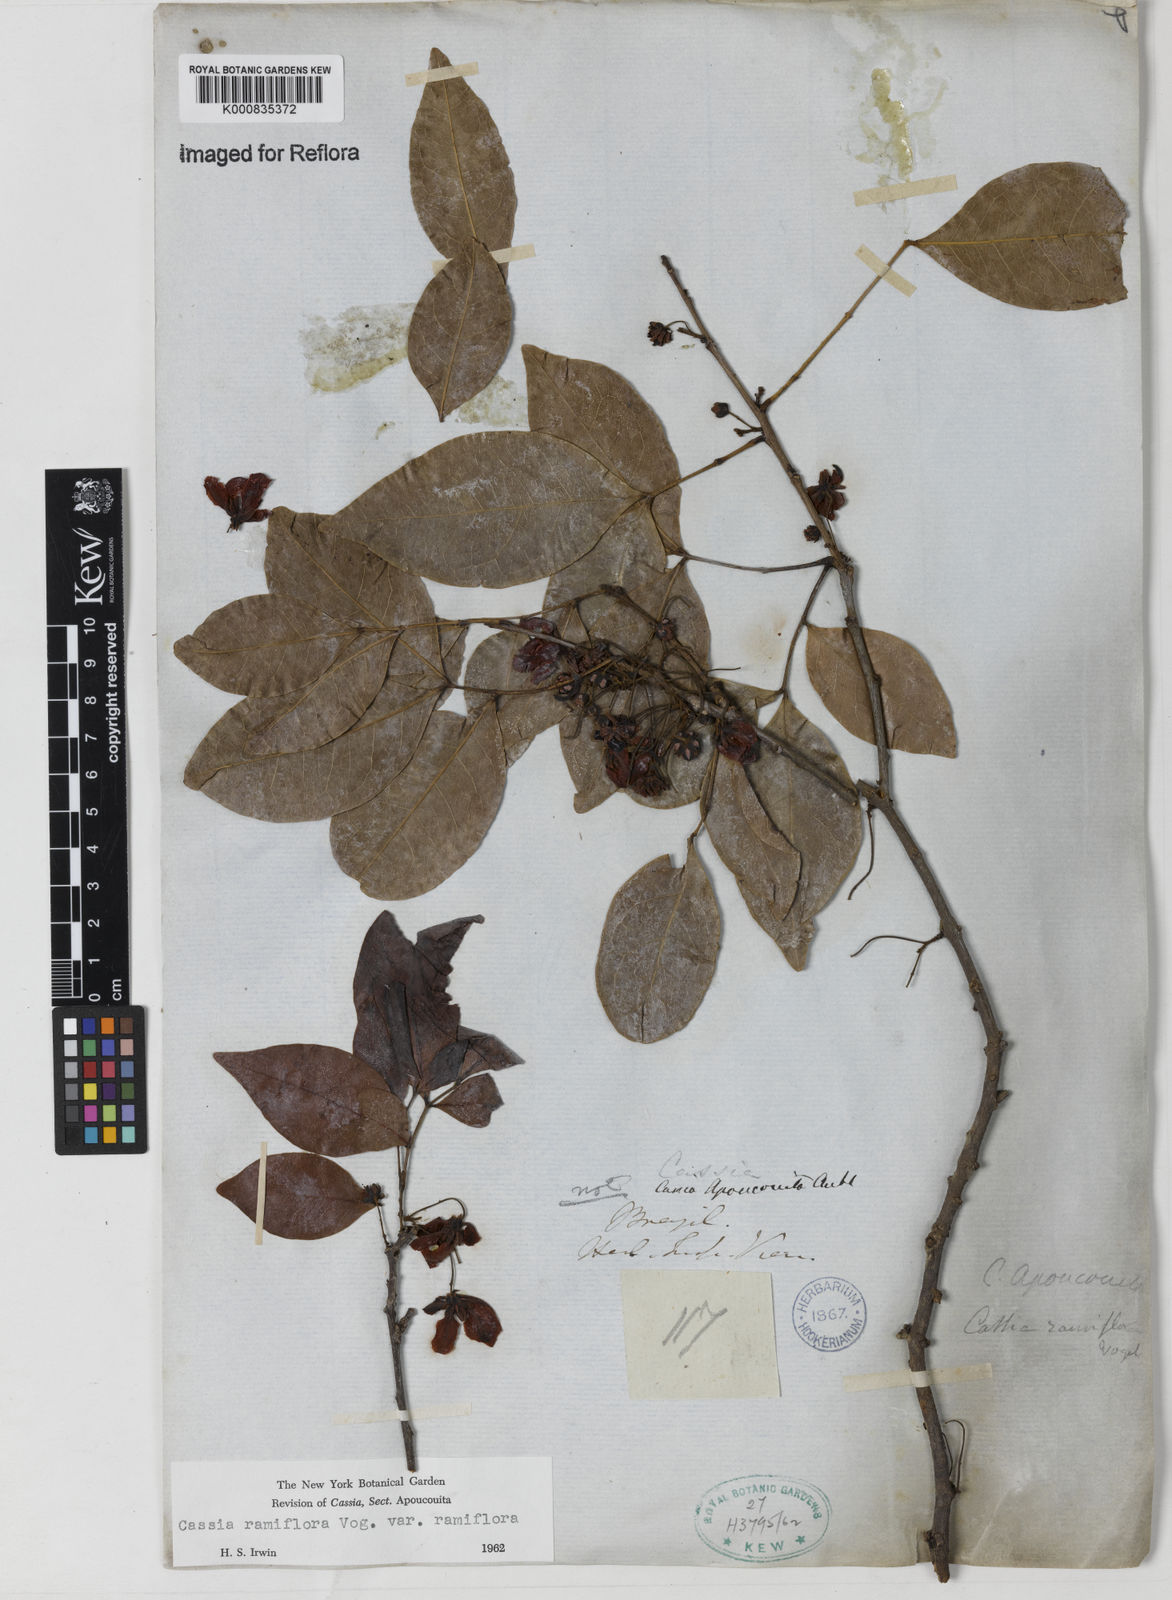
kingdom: Plantae
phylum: Tracheophyta
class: Magnoliopsida
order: Fabales
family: Fabaceae
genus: Chamaecrista
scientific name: Chamaecrista ensiformis
